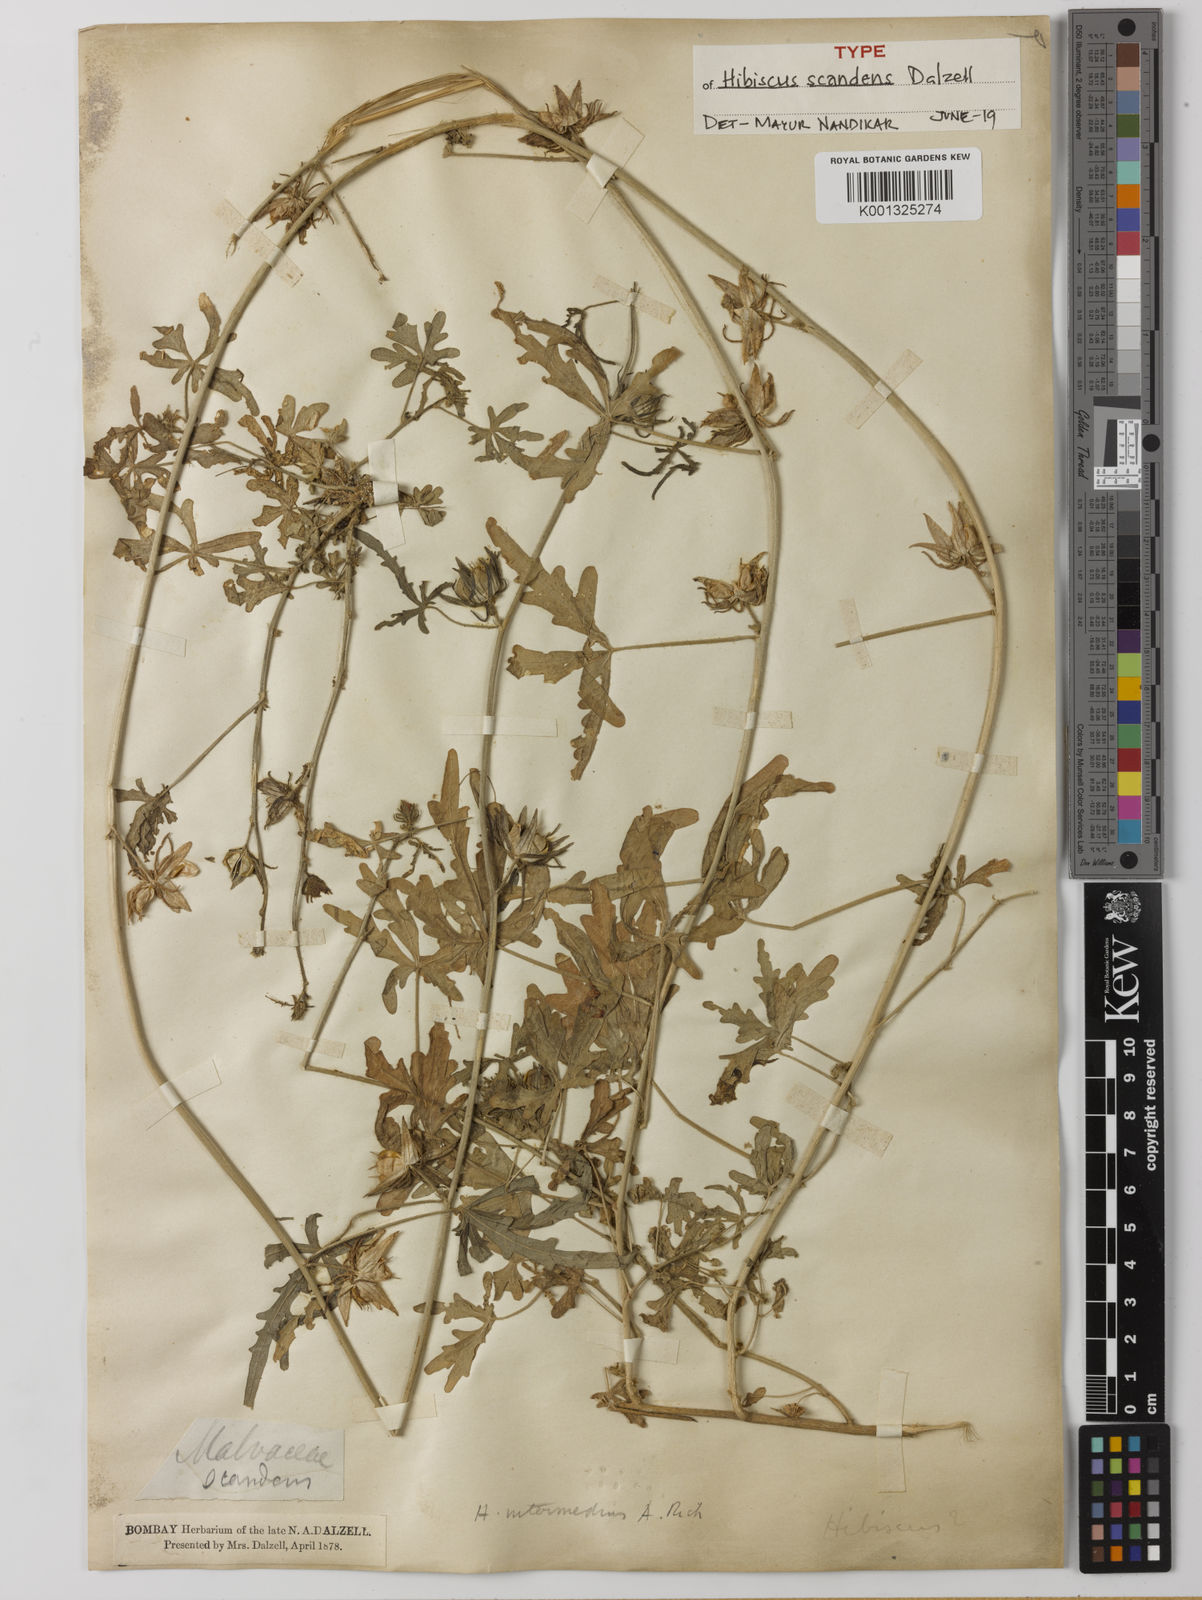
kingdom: Plantae
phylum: Tracheophyta
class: Magnoliopsida
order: Malvales
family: Malvaceae
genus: Hibiscus
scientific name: Hibiscus
